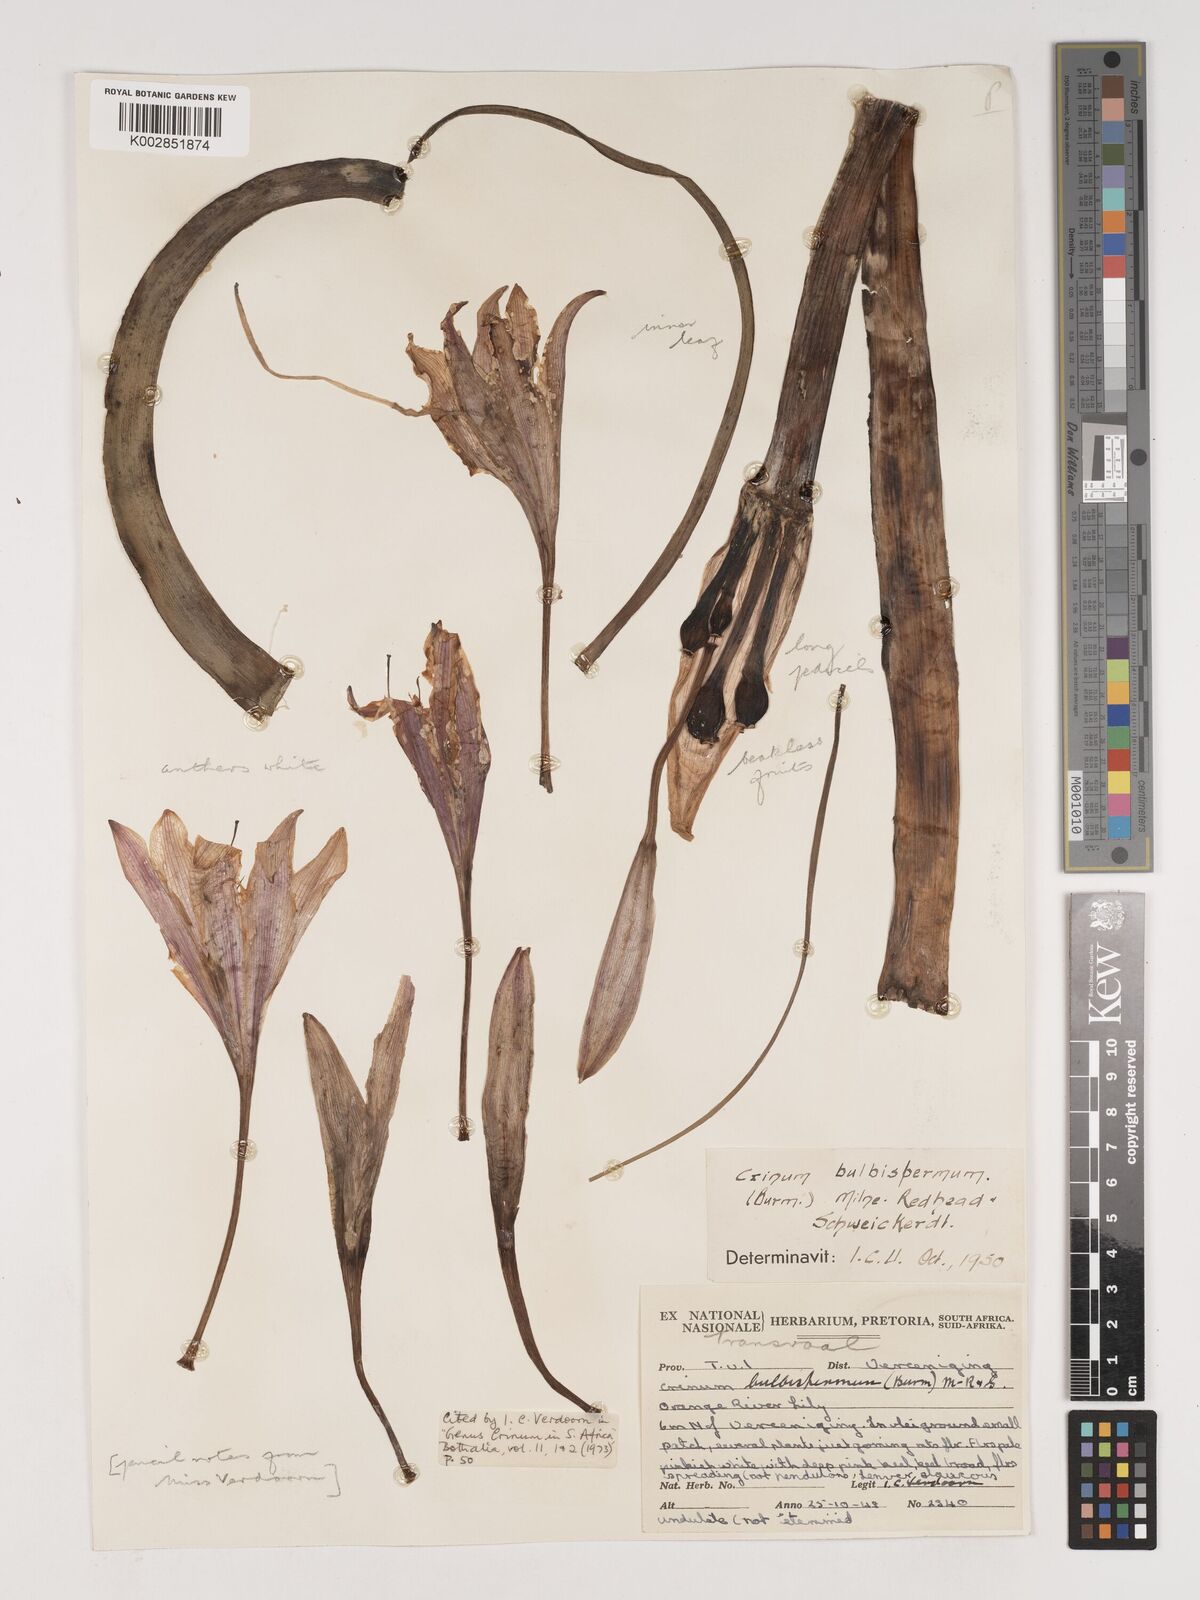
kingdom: Plantae
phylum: Tracheophyta
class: Liliopsida
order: Asparagales
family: Amaryllidaceae
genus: Crinum
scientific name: Crinum bulbispermum
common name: Hardy swamplily
